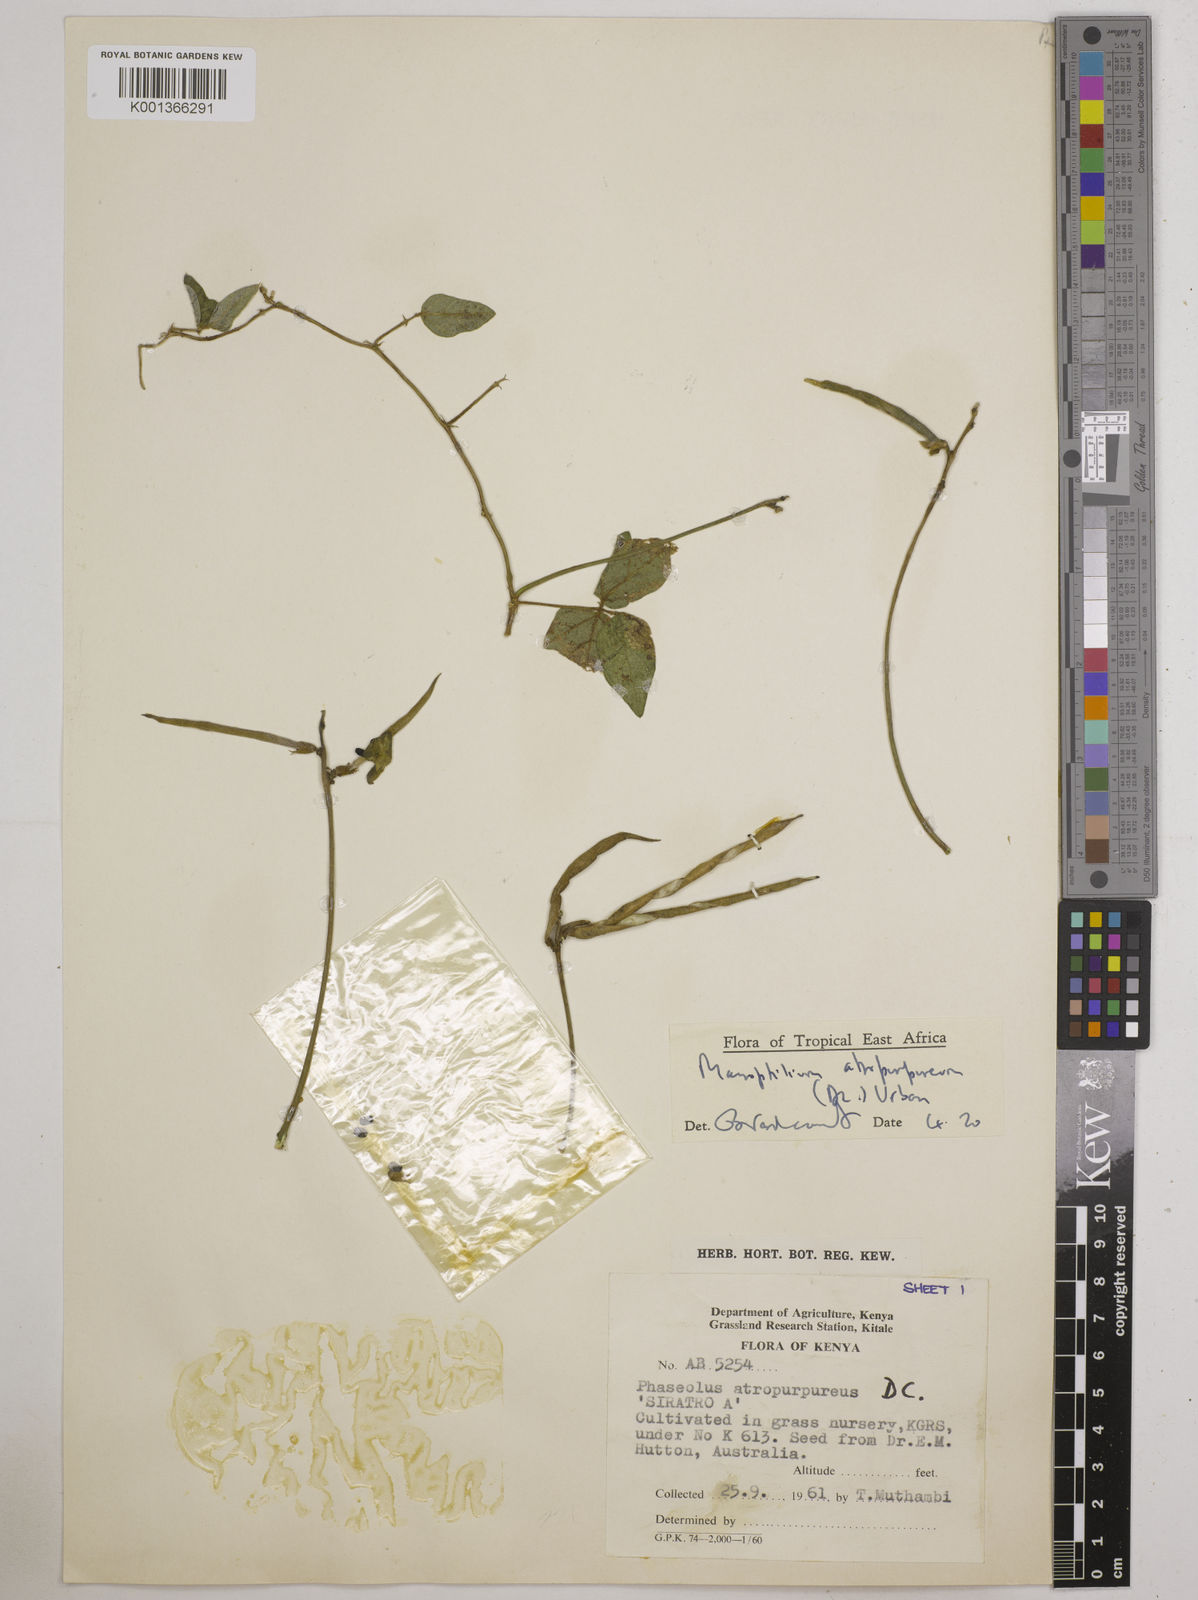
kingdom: Plantae
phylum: Tracheophyta
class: Magnoliopsida
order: Fabales
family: Fabaceae
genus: Macroptilium
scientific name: Macroptilium atropurpureum
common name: Purple bushbean
